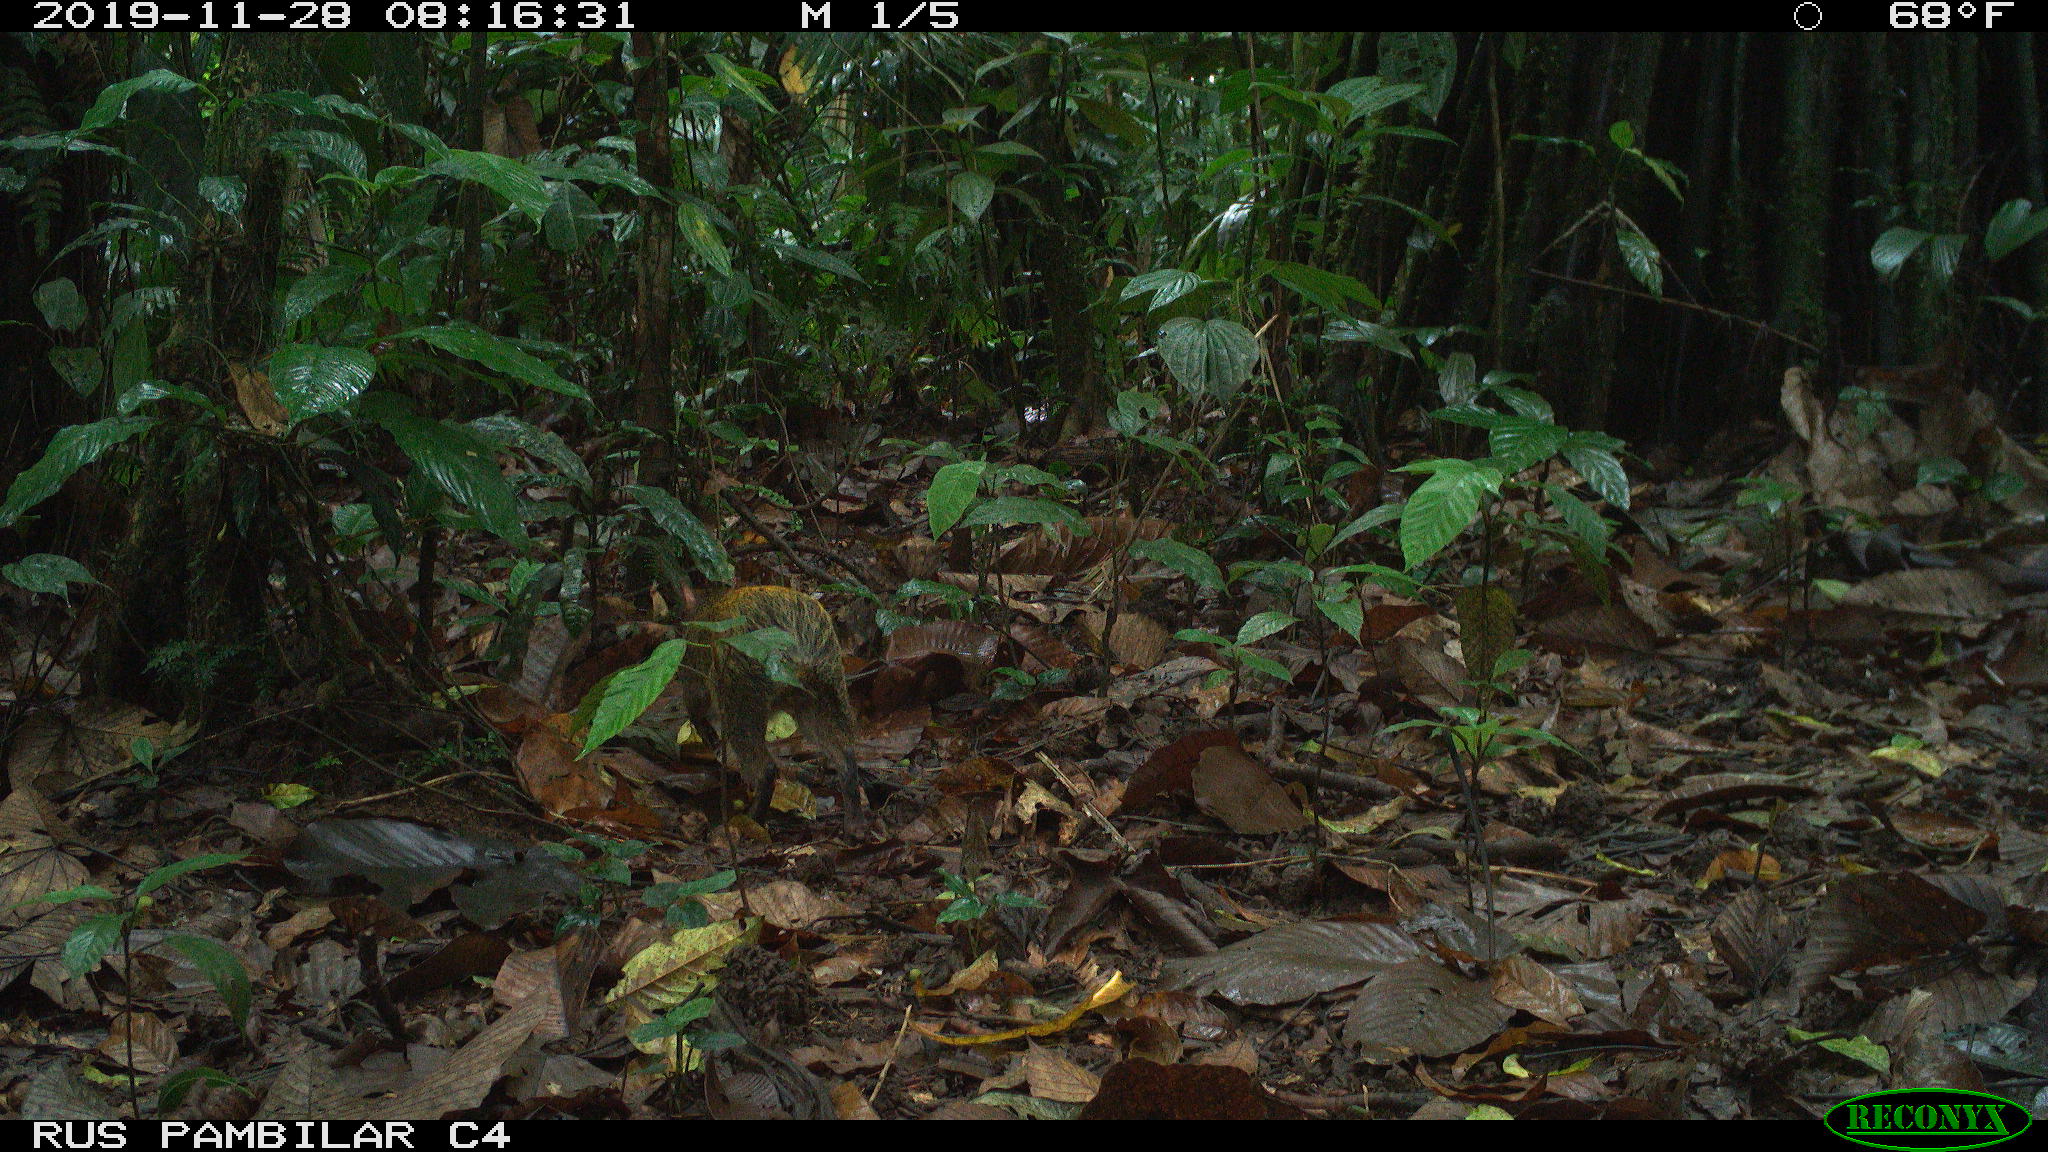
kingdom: Animalia
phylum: Chordata
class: Mammalia
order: Rodentia
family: Dasyproctidae
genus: Dasyprocta
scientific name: Dasyprocta punctata
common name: Central american agouti
